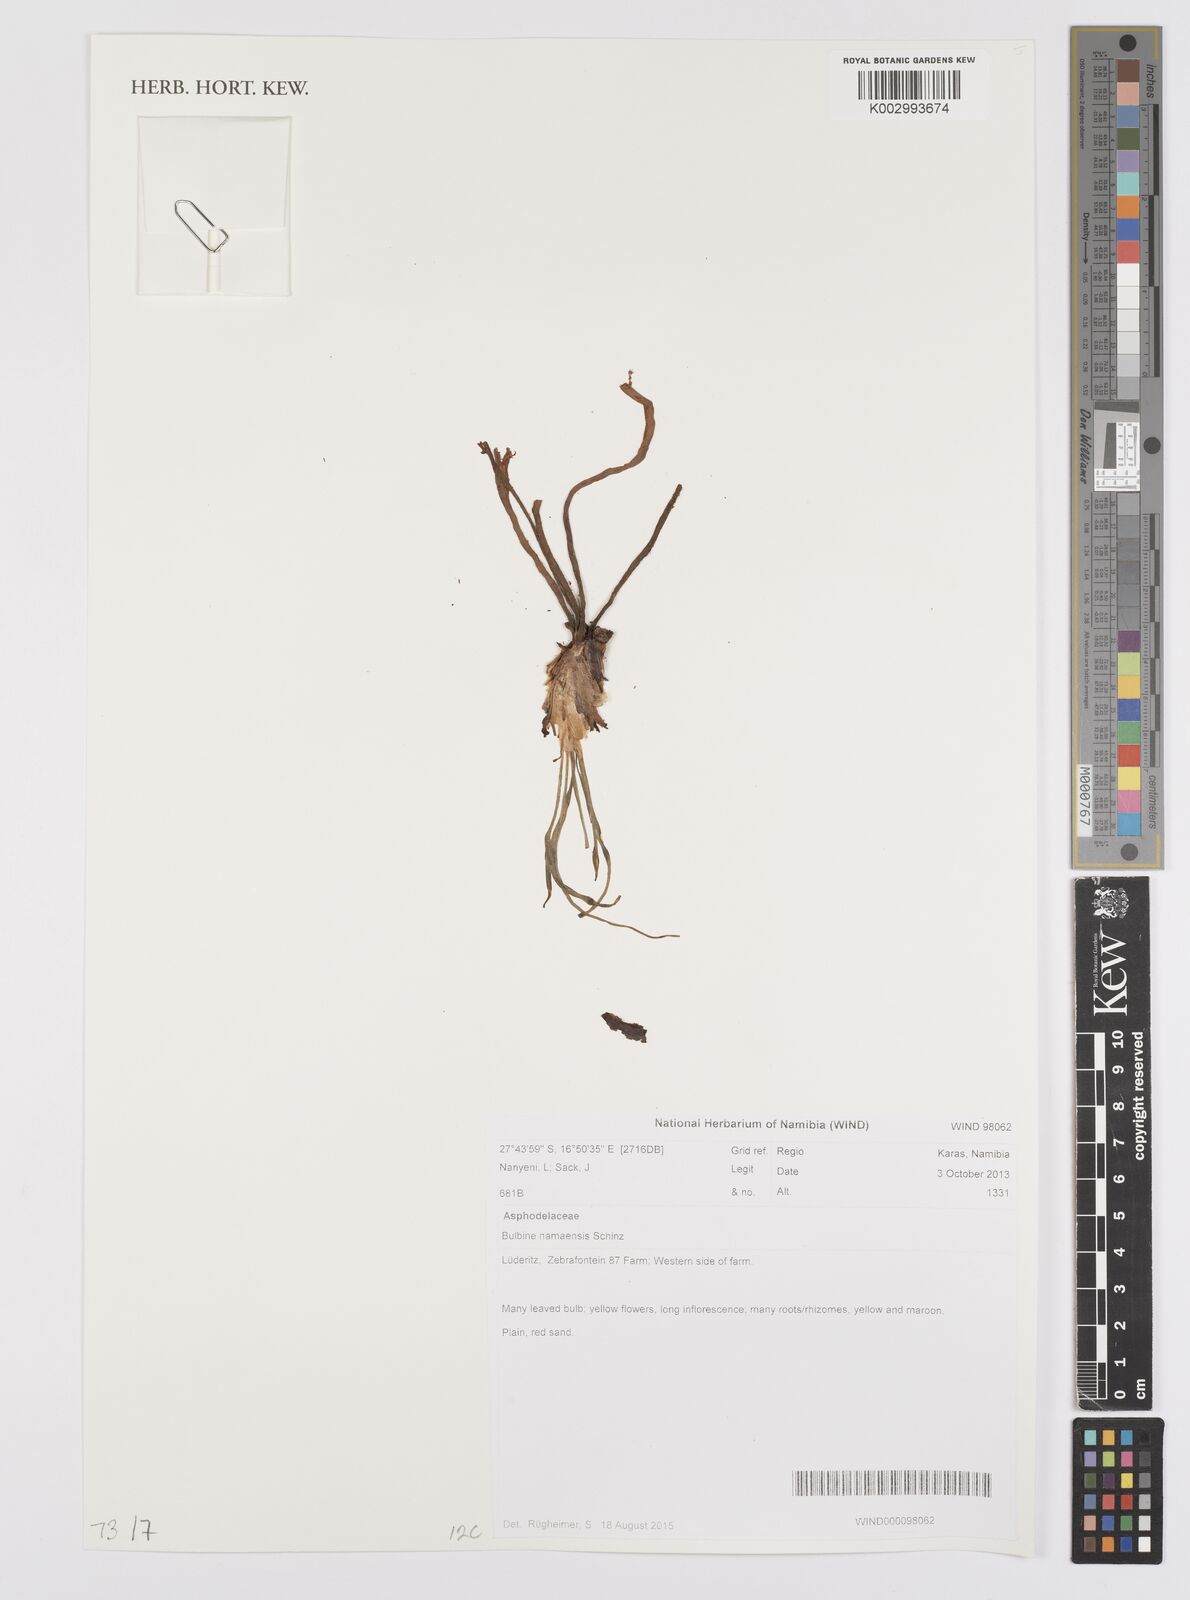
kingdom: Plantae
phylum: Tracheophyta
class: Liliopsida
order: Asparagales
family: Asphodelaceae
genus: Bulbine
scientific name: Bulbine namaensis
